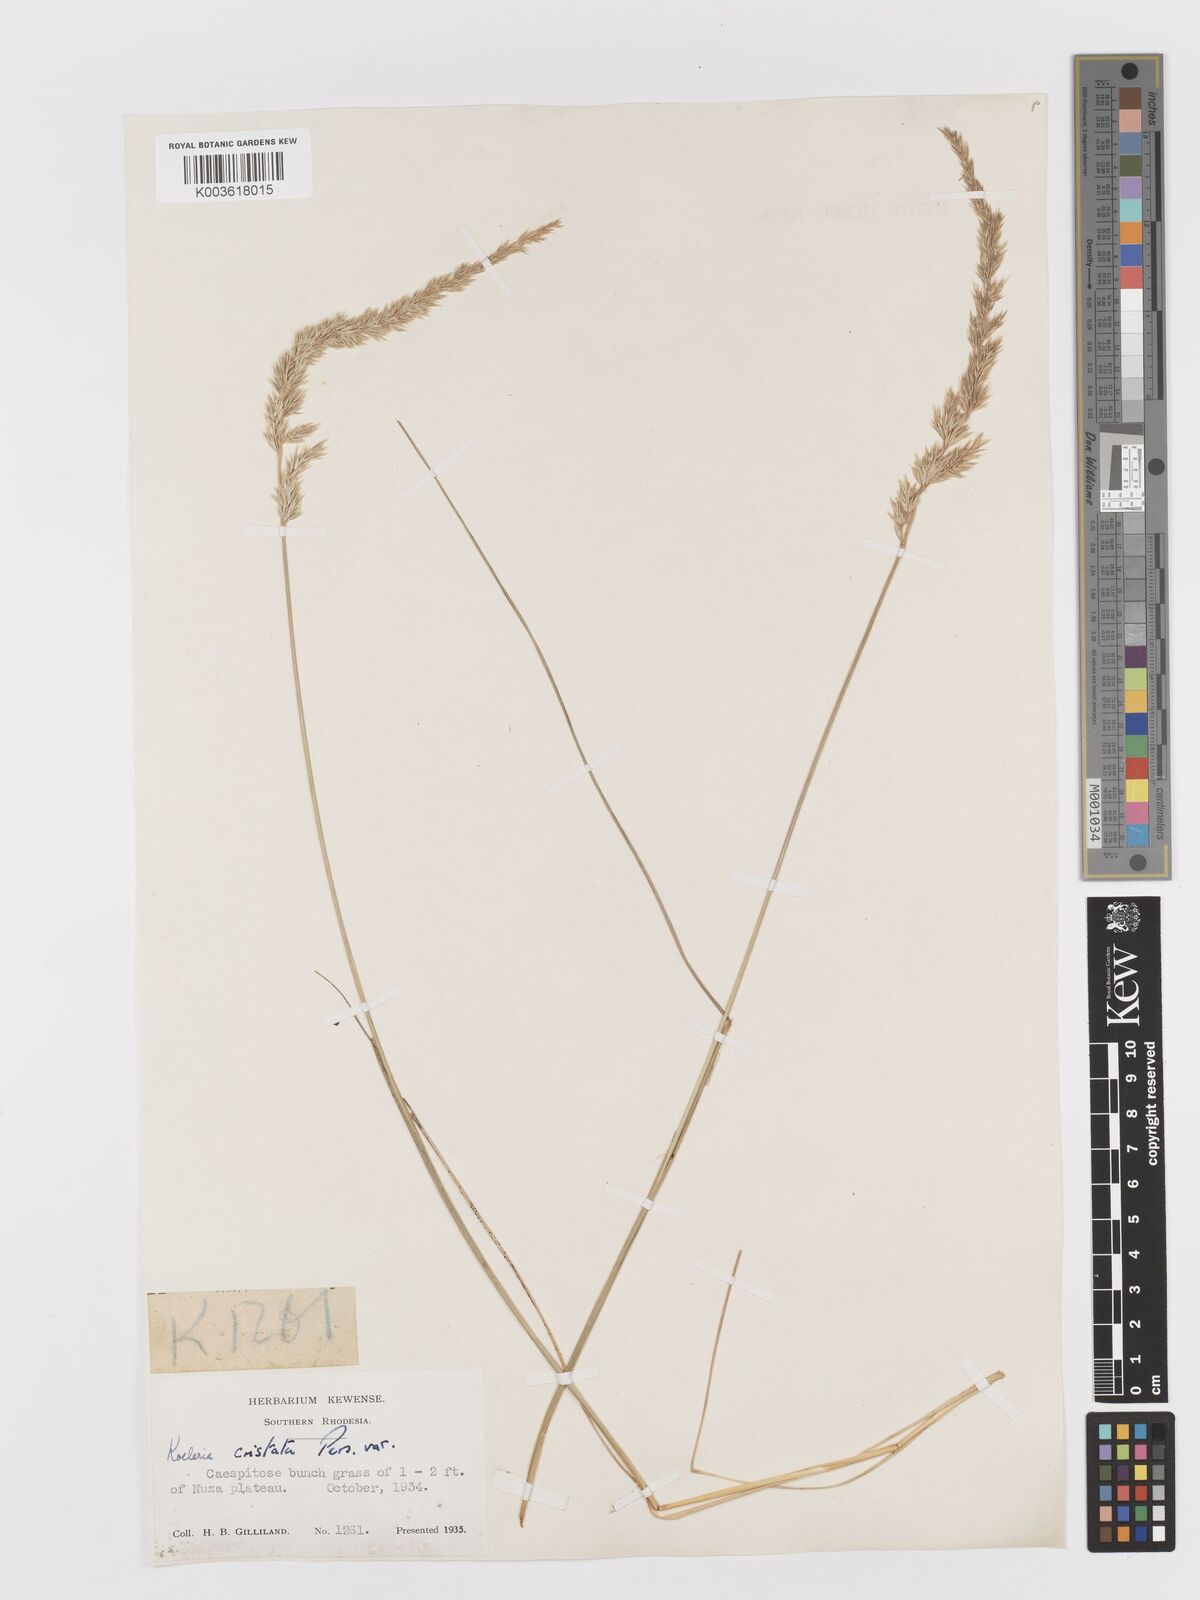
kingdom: Plantae
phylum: Tracheophyta
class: Liliopsida
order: Poales
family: Poaceae
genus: Koeleria
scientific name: Koeleria capensis
